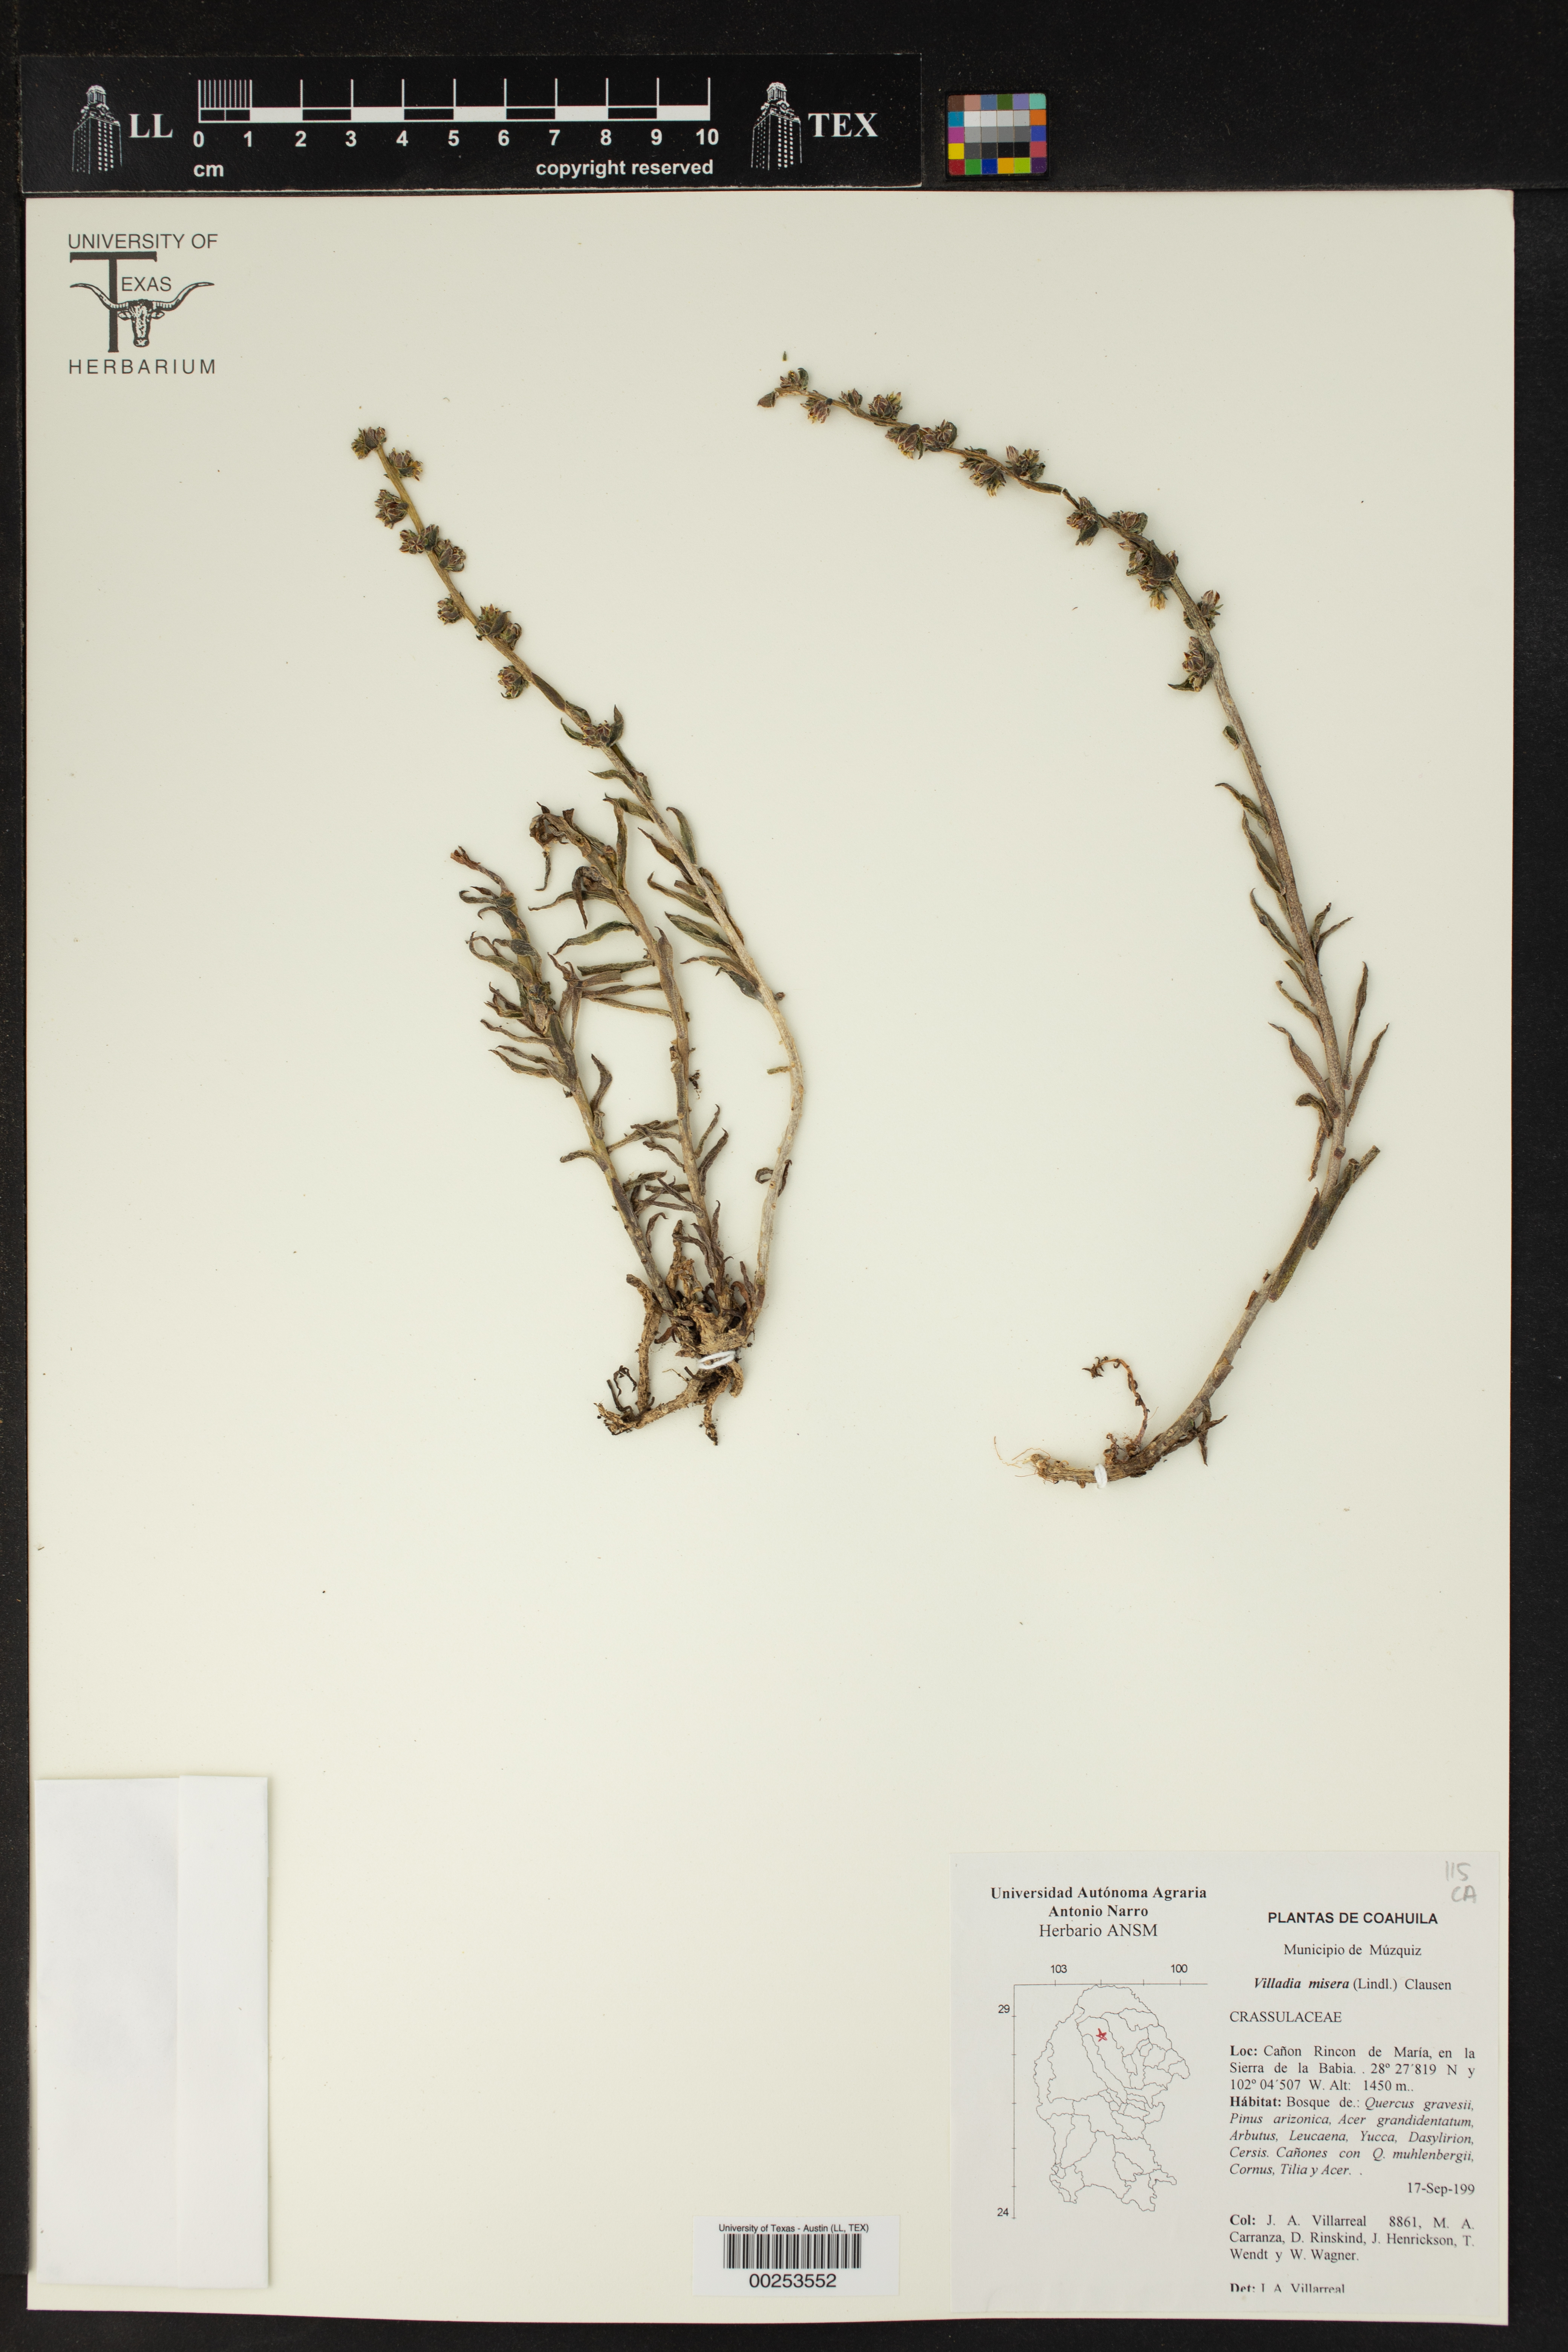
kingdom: Plantae
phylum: Tracheophyta
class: Magnoliopsida
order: Saxifragales
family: Crassulaceae
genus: Villadia
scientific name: Villadia misera
